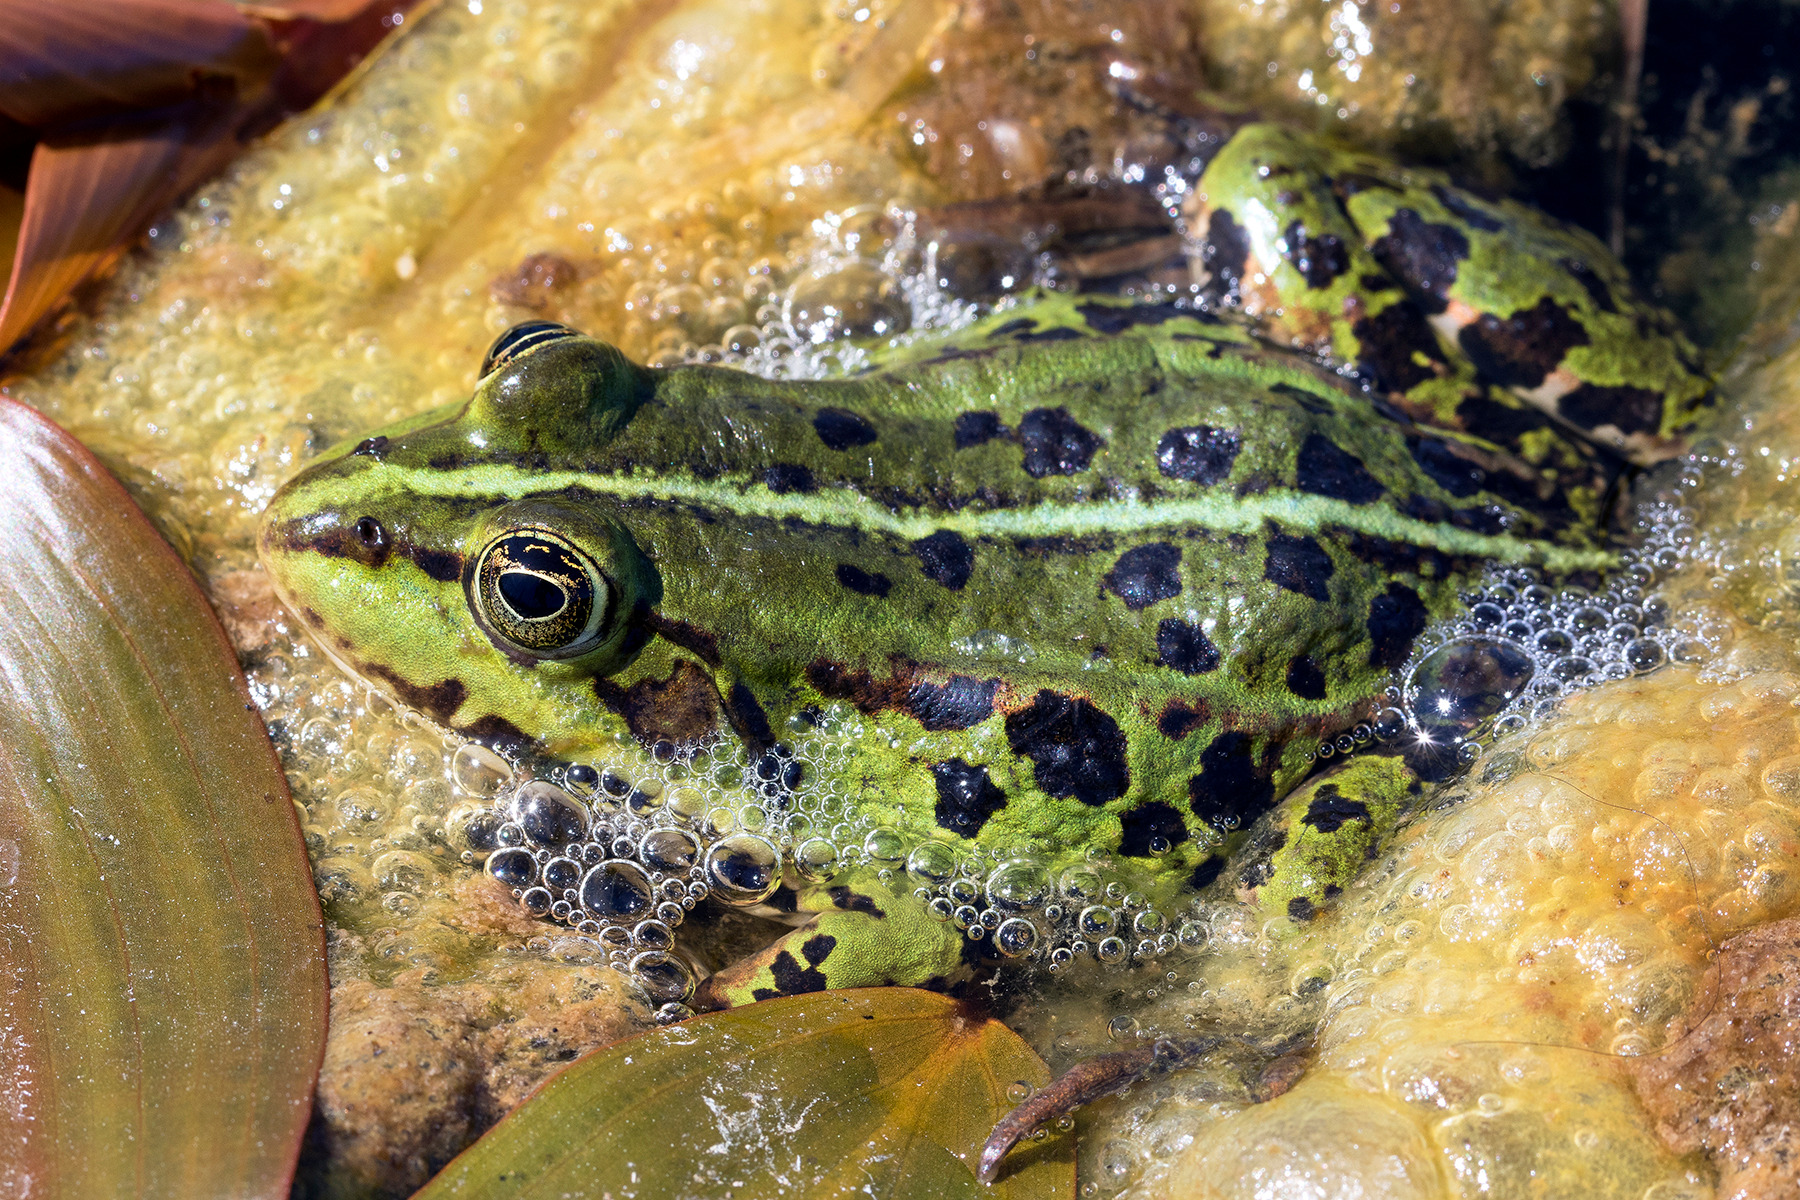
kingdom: Animalia
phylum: Chordata
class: Amphibia
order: Anura
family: Ranidae
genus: Pelophylax
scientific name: Pelophylax lessonae
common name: Grøn frø
